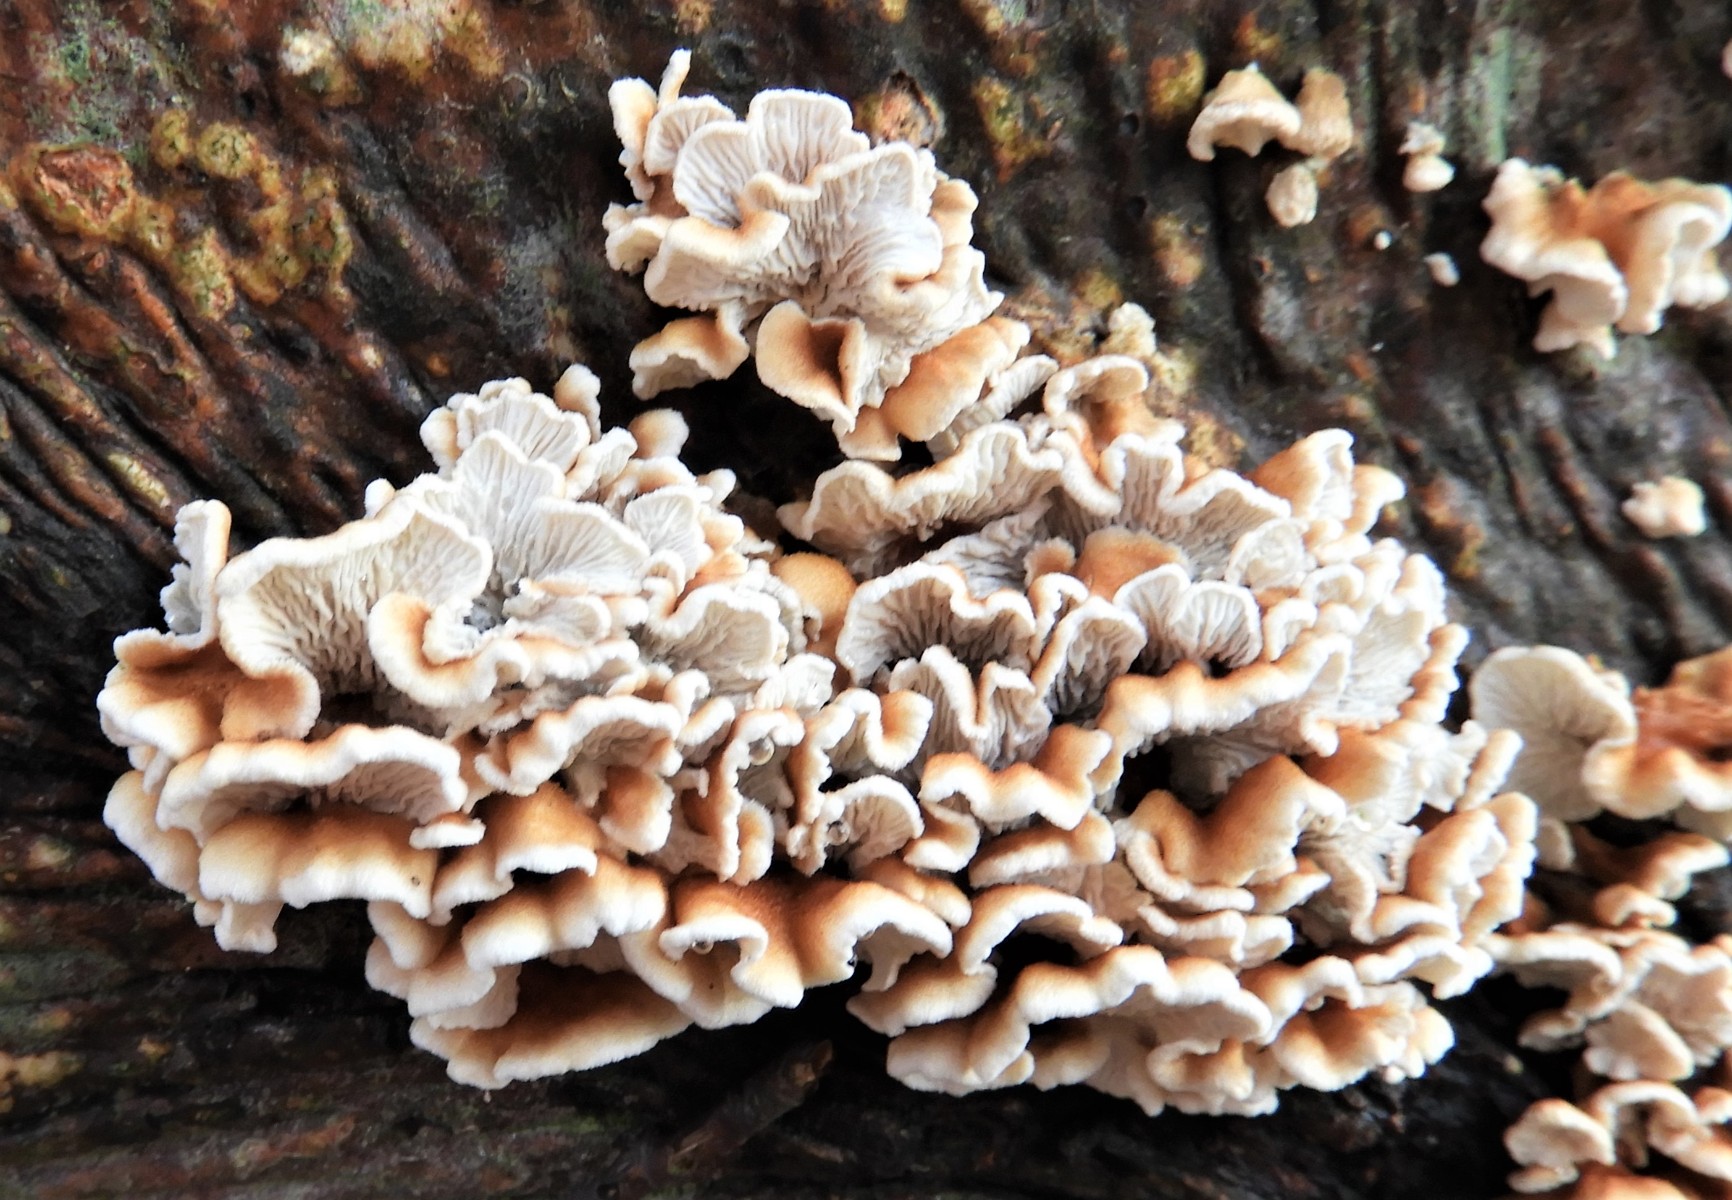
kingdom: Fungi
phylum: Basidiomycota
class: Agaricomycetes
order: Amylocorticiales
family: Amylocorticiaceae
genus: Plicaturopsis
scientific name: Plicaturopsis crispa
